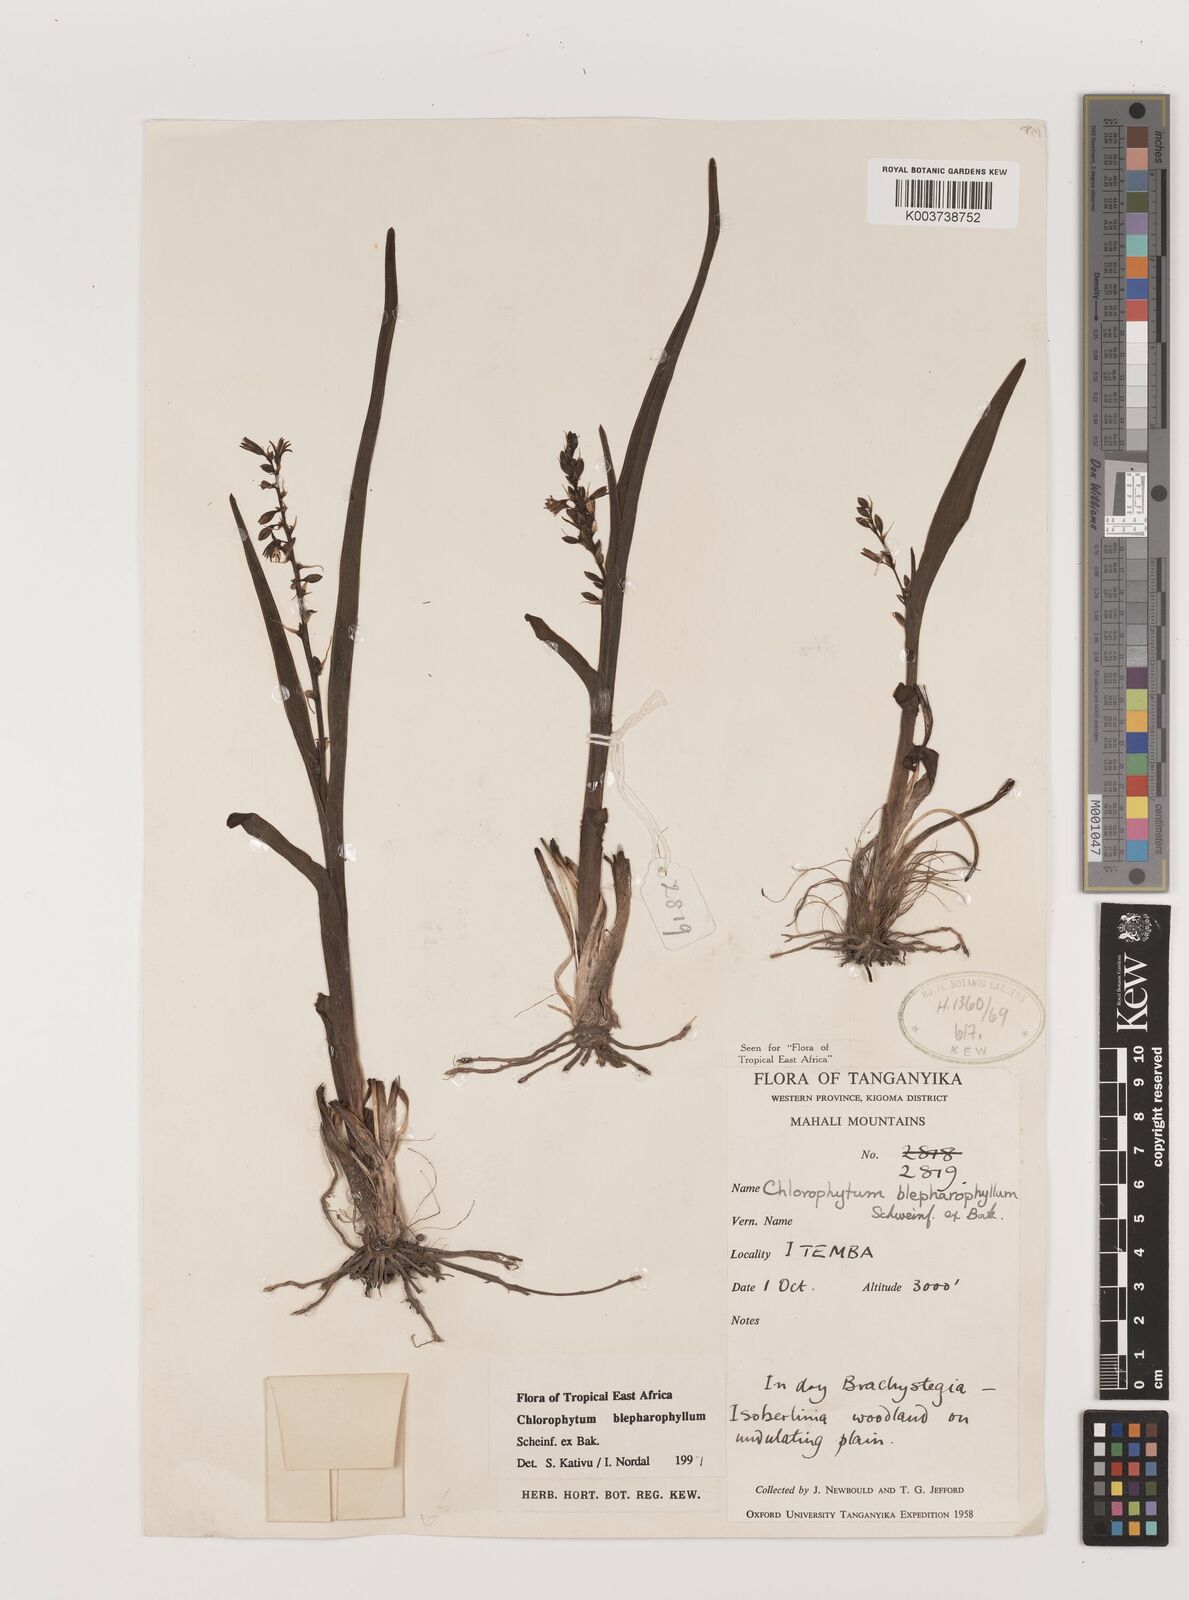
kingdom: Plantae
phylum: Tracheophyta
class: Liliopsida
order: Asparagales
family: Asparagaceae
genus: Chlorophytum
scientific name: Chlorophytum blepharophyllum
